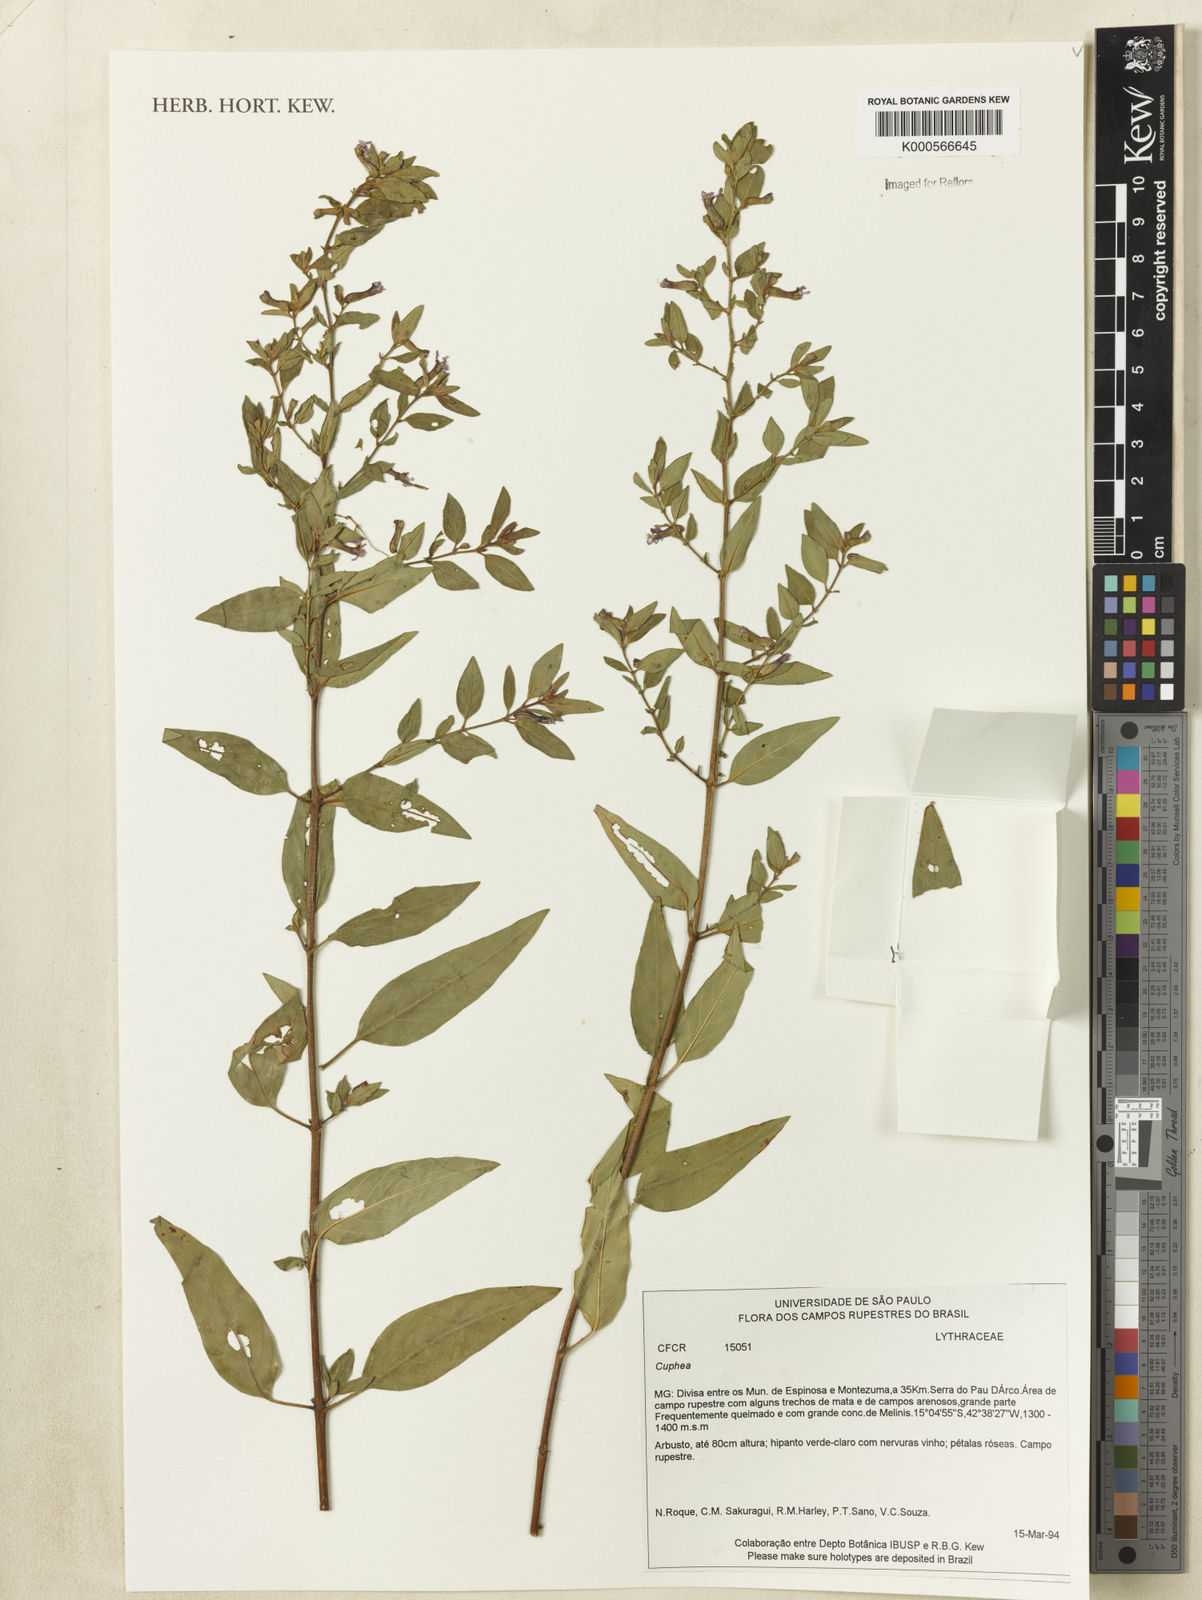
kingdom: Plantae
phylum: Tracheophyta
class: Magnoliopsida
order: Myrtales
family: Lythraceae
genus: Cuphea
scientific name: Cuphea
